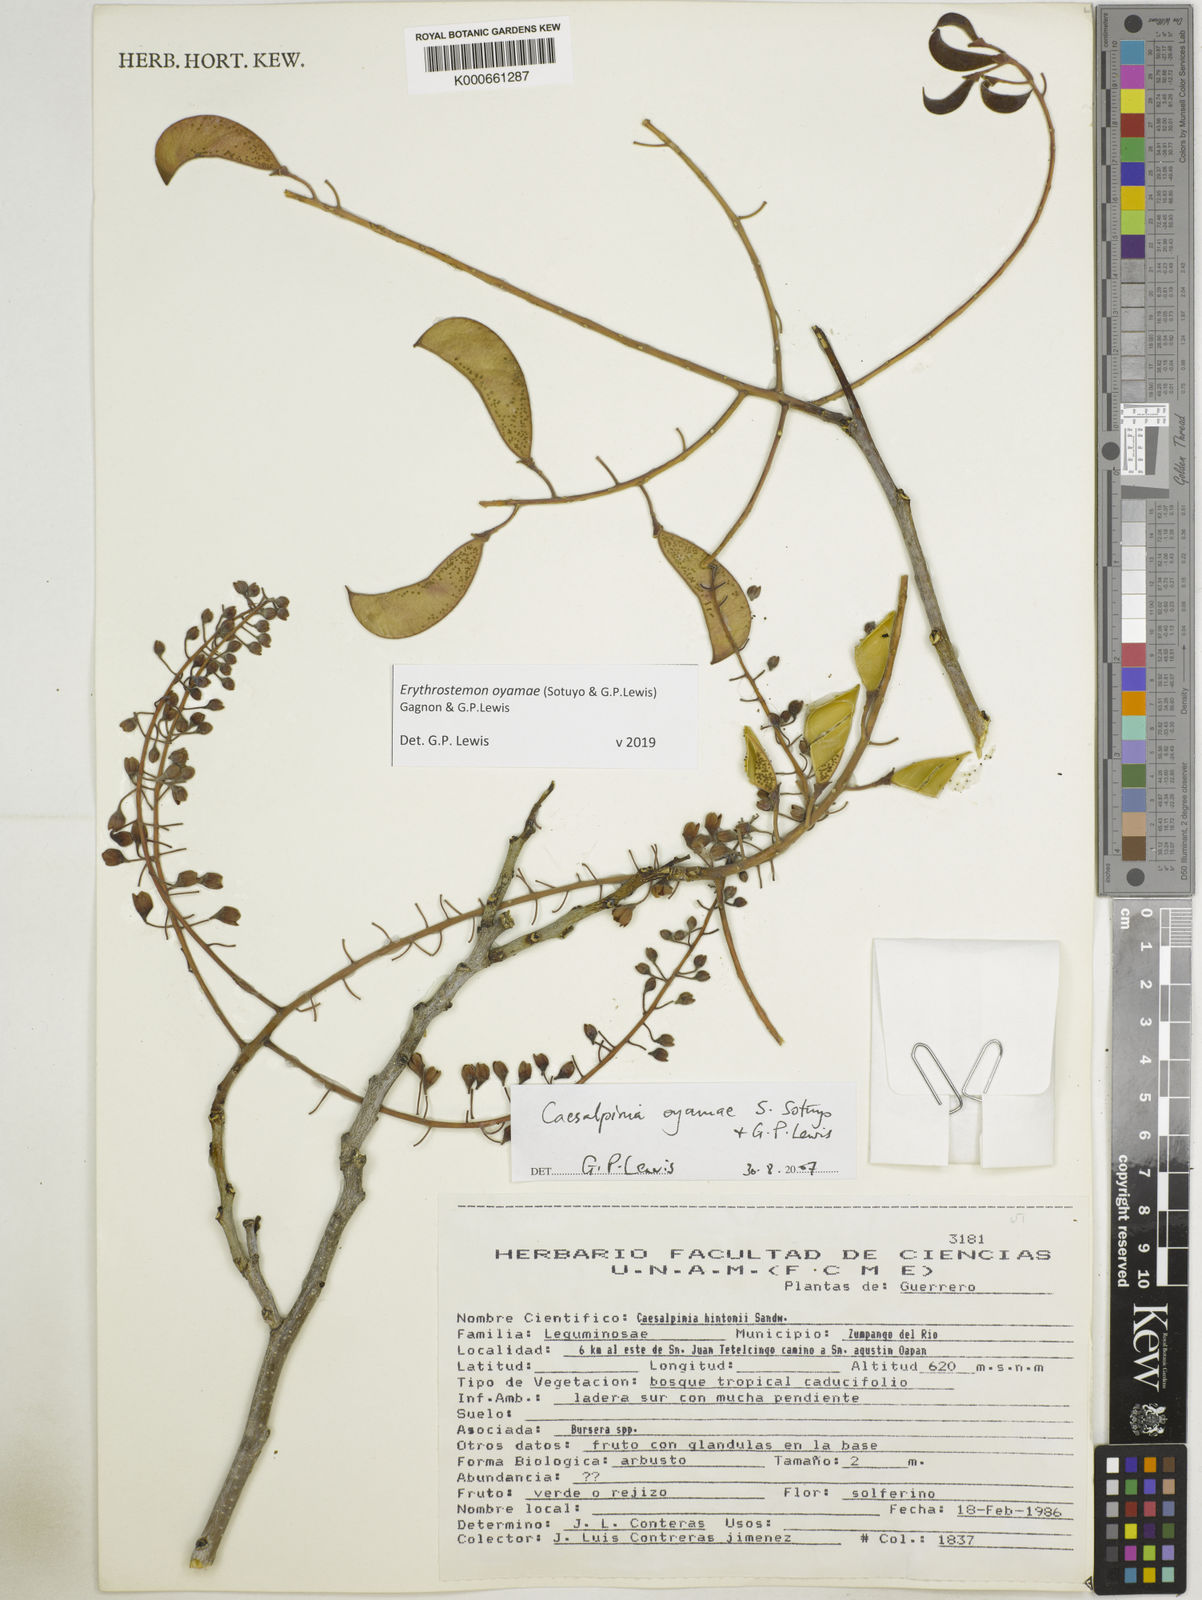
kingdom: Plantae
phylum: Tracheophyta
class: Magnoliopsida
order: Fabales
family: Fabaceae
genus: Erythrostemon
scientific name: Erythrostemon oyamae
